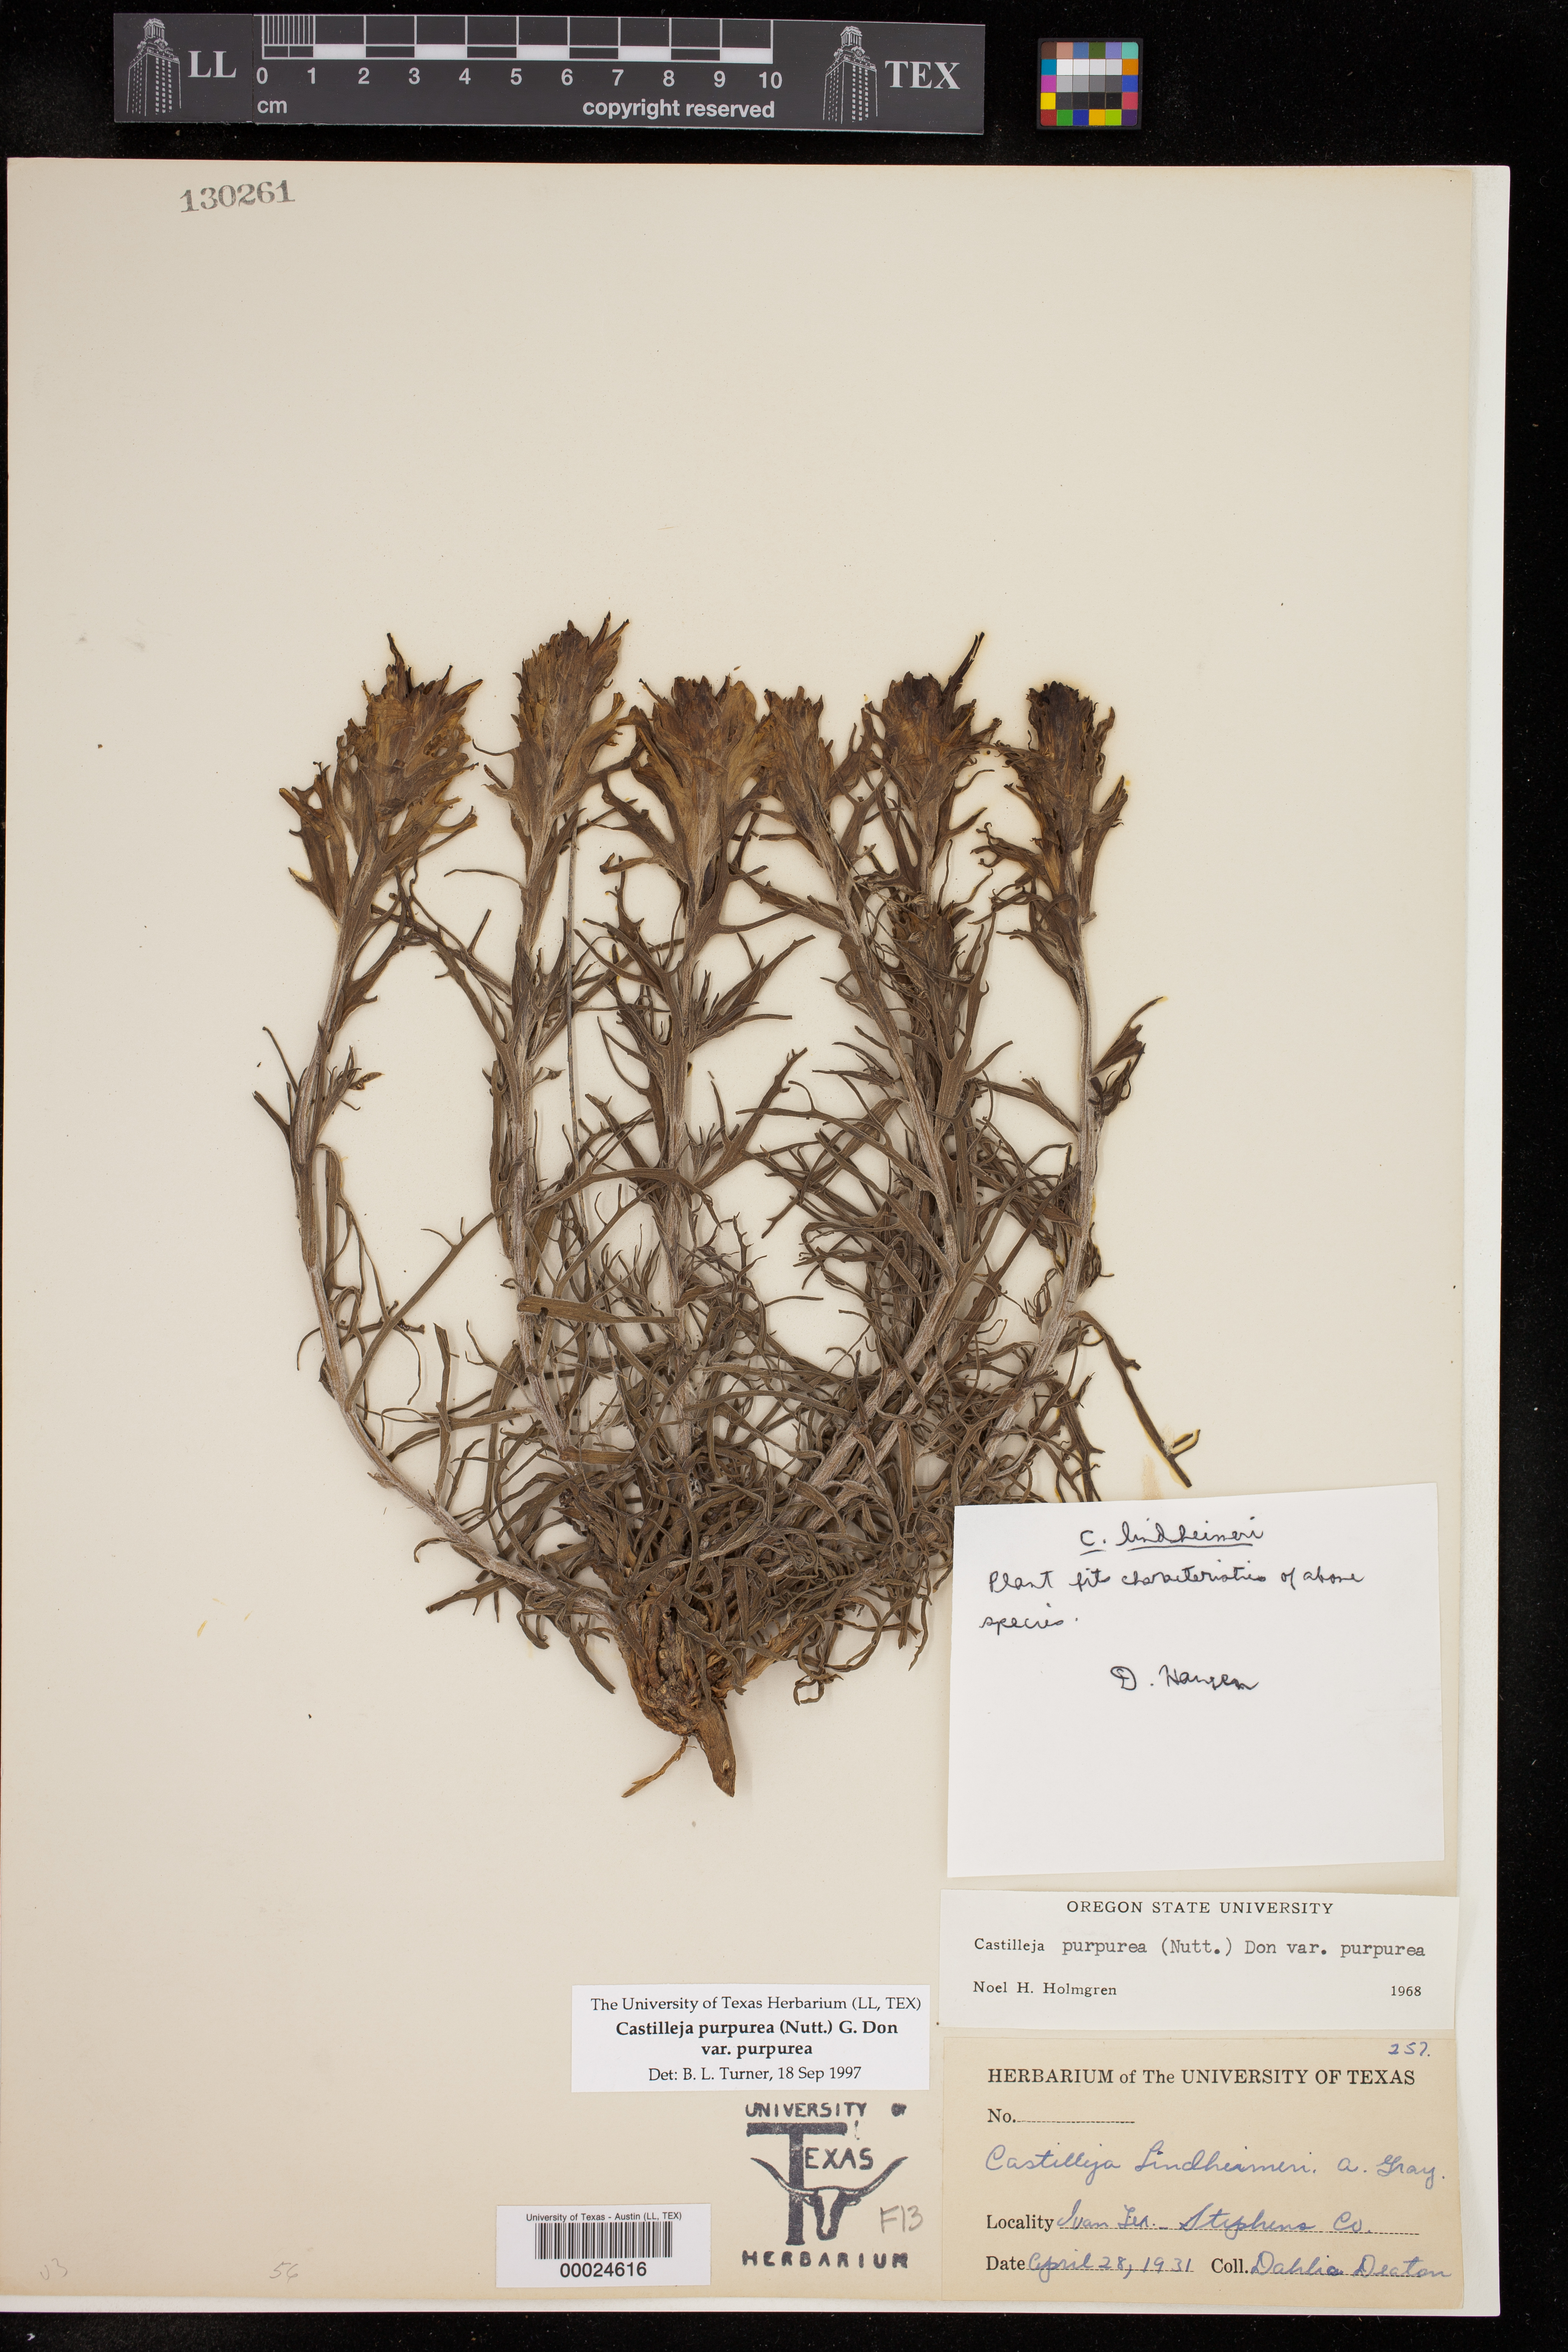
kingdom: Plantae
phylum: Tracheophyta
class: Magnoliopsida
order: Lamiales
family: Orobanchaceae
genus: Castilleja
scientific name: Castilleja purpurea
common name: Plains paintbrush
